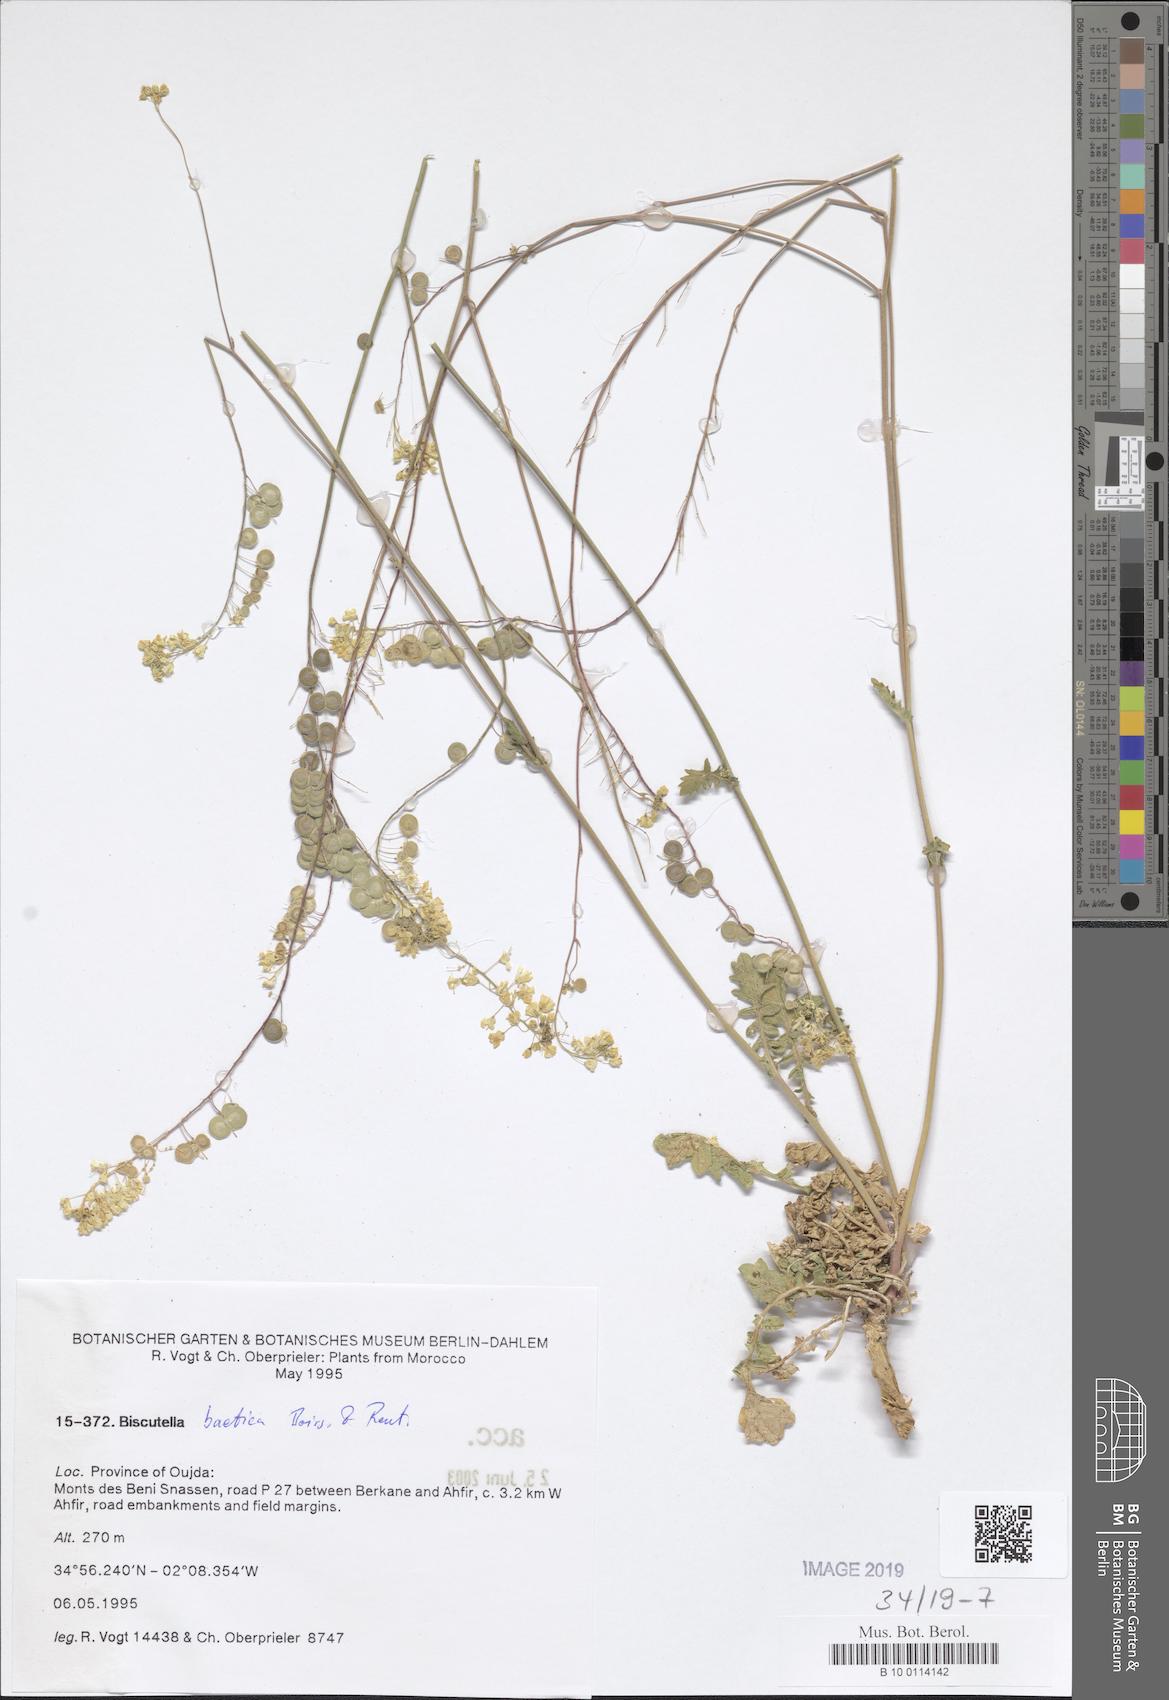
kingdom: Plantae
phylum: Tracheophyta
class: Magnoliopsida
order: Brassicales
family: Brassicaceae
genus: Biscutella
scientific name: Biscutella eriocarpa
